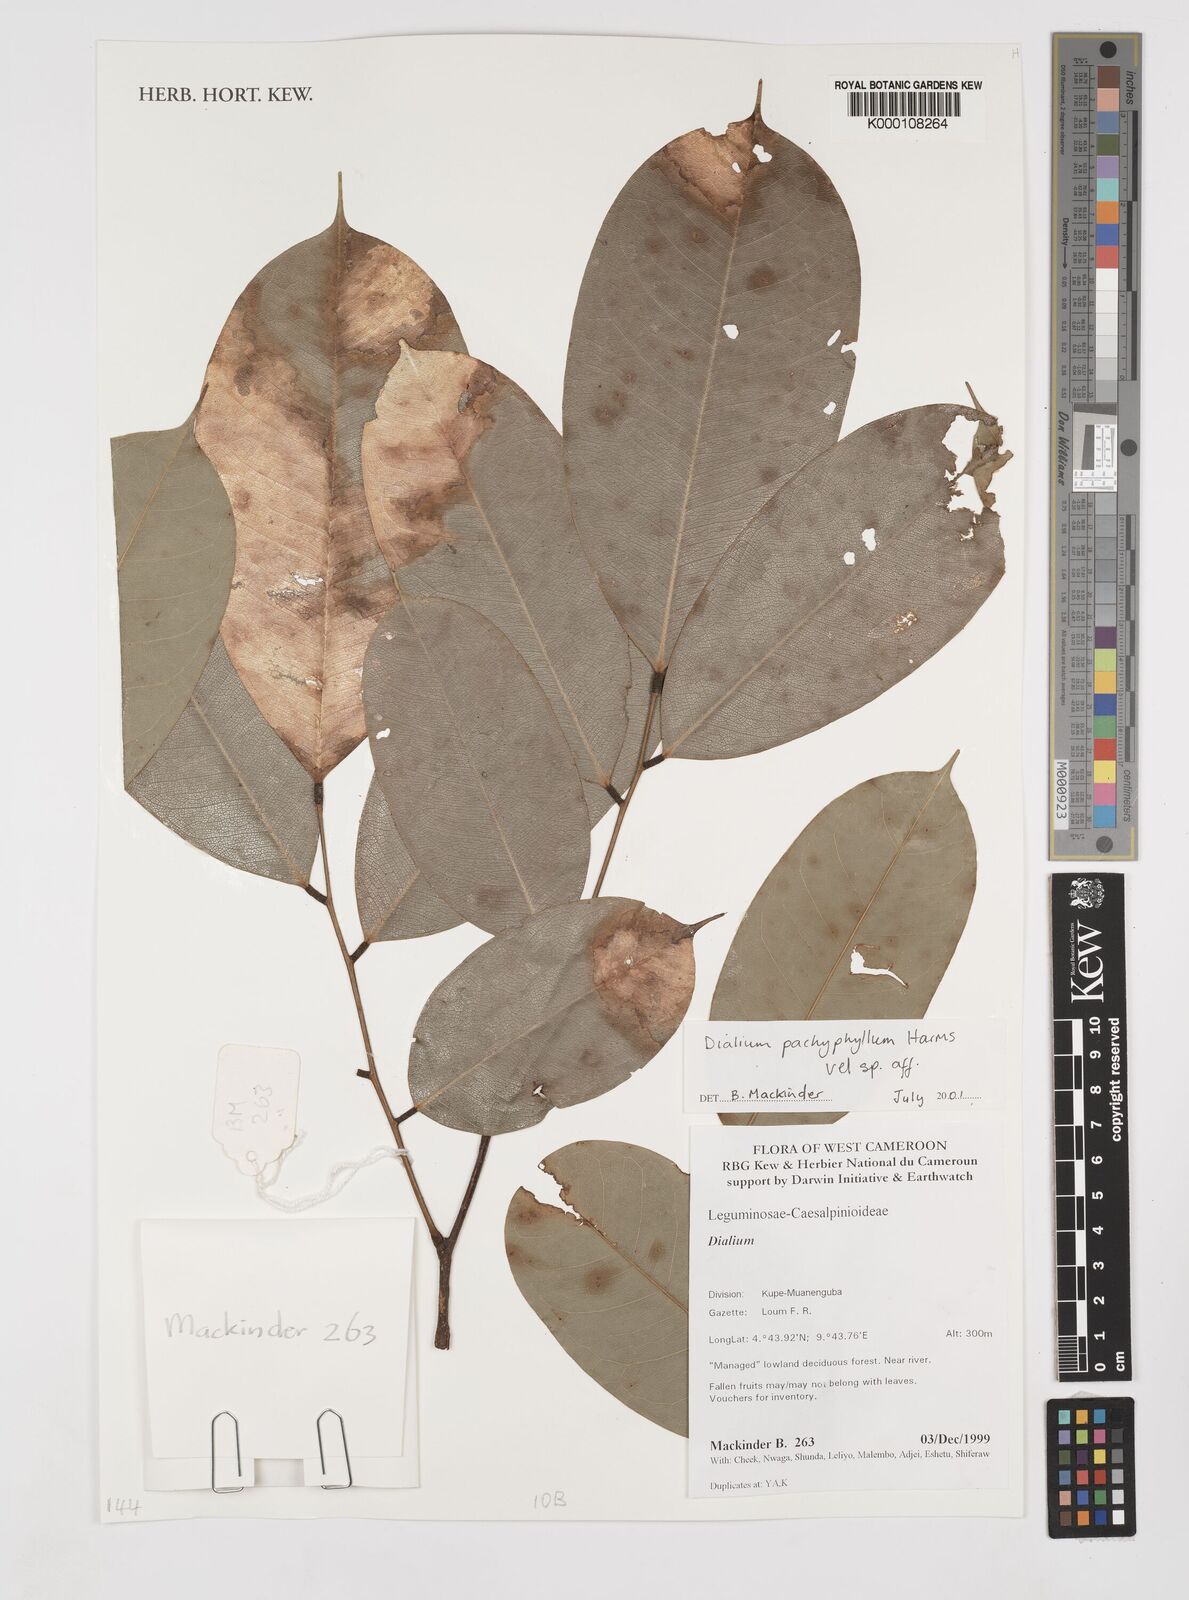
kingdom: Plantae
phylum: Tracheophyta
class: Magnoliopsida
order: Fabales
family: Fabaceae
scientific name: Fabaceae
